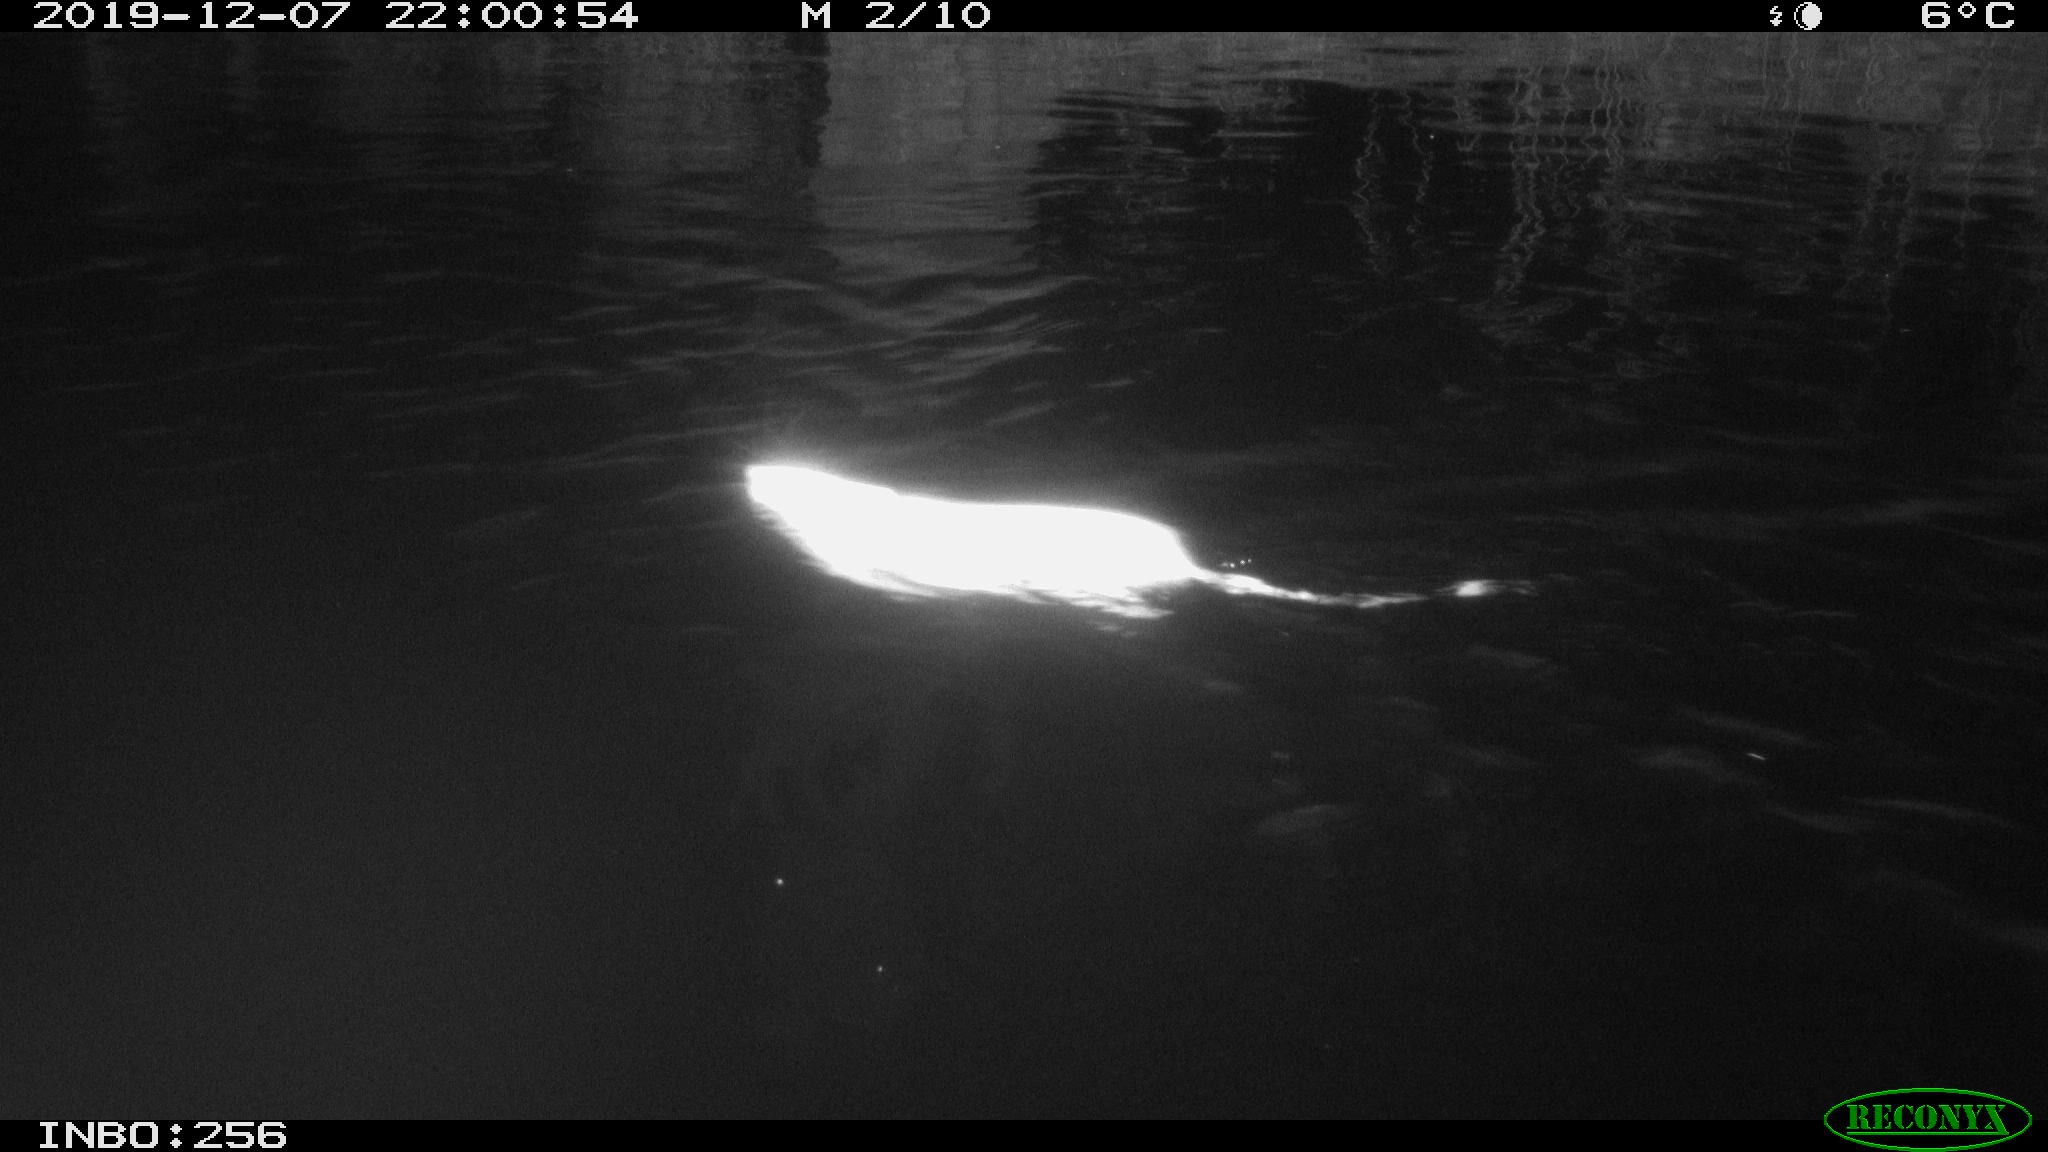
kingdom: Animalia
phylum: Chordata
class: Mammalia
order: Rodentia
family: Cricetidae
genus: Ondatra
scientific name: Ondatra zibethicus
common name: Muskrat
